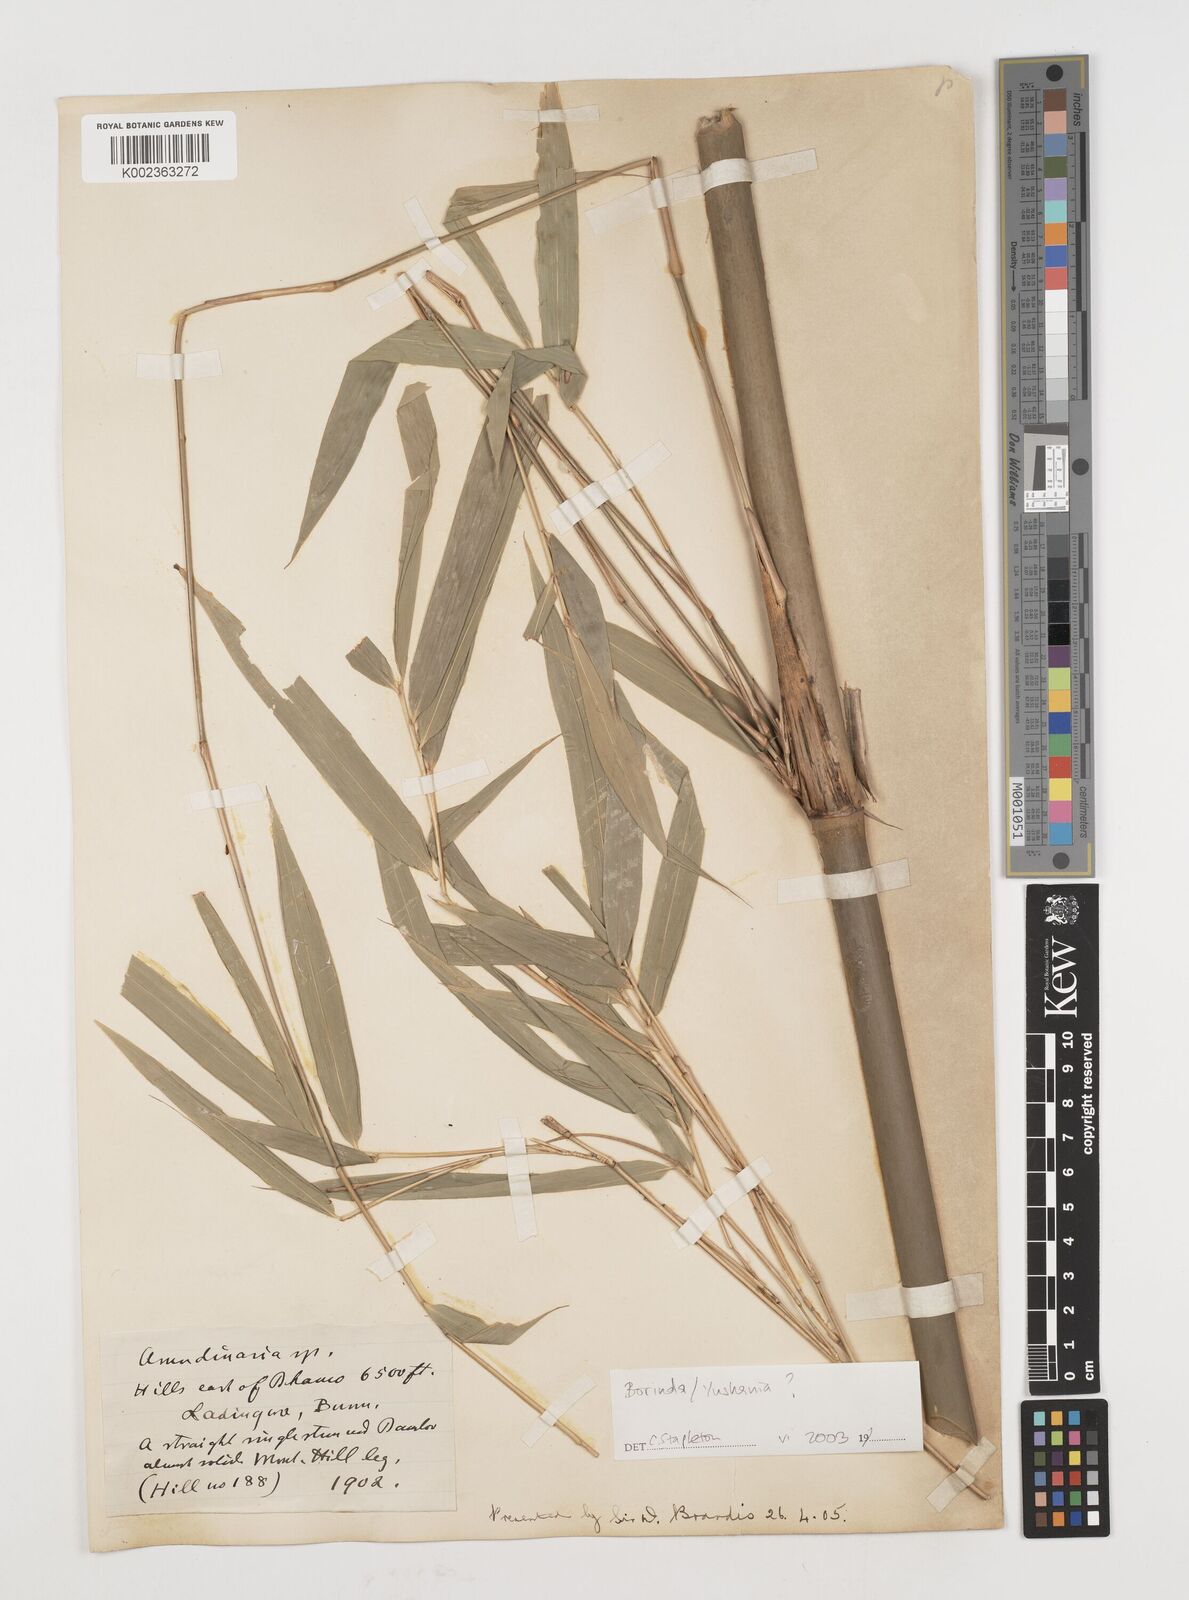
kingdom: Plantae
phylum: Tracheophyta
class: Liliopsida
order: Poales
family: Poaceae
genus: Fargesia
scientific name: Fargesia
